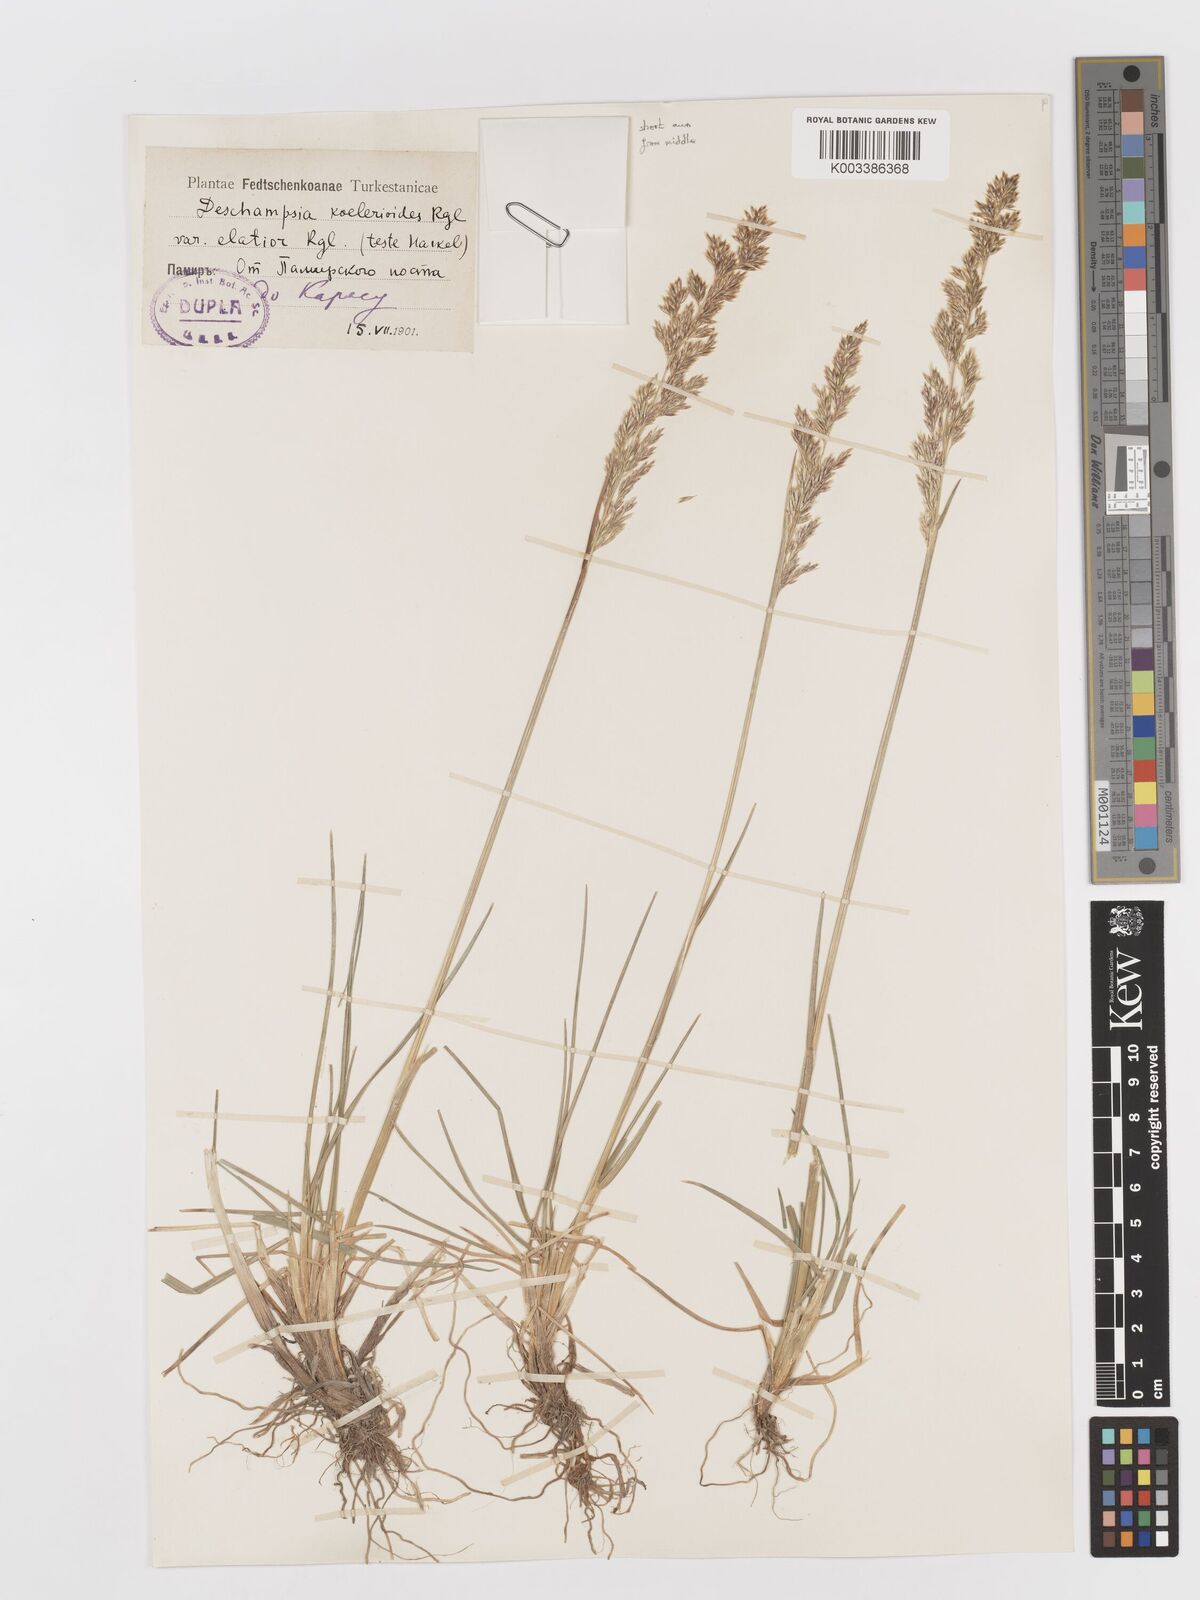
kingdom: Plantae
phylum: Tracheophyta
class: Liliopsida
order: Poales
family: Poaceae
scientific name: Poaceae
